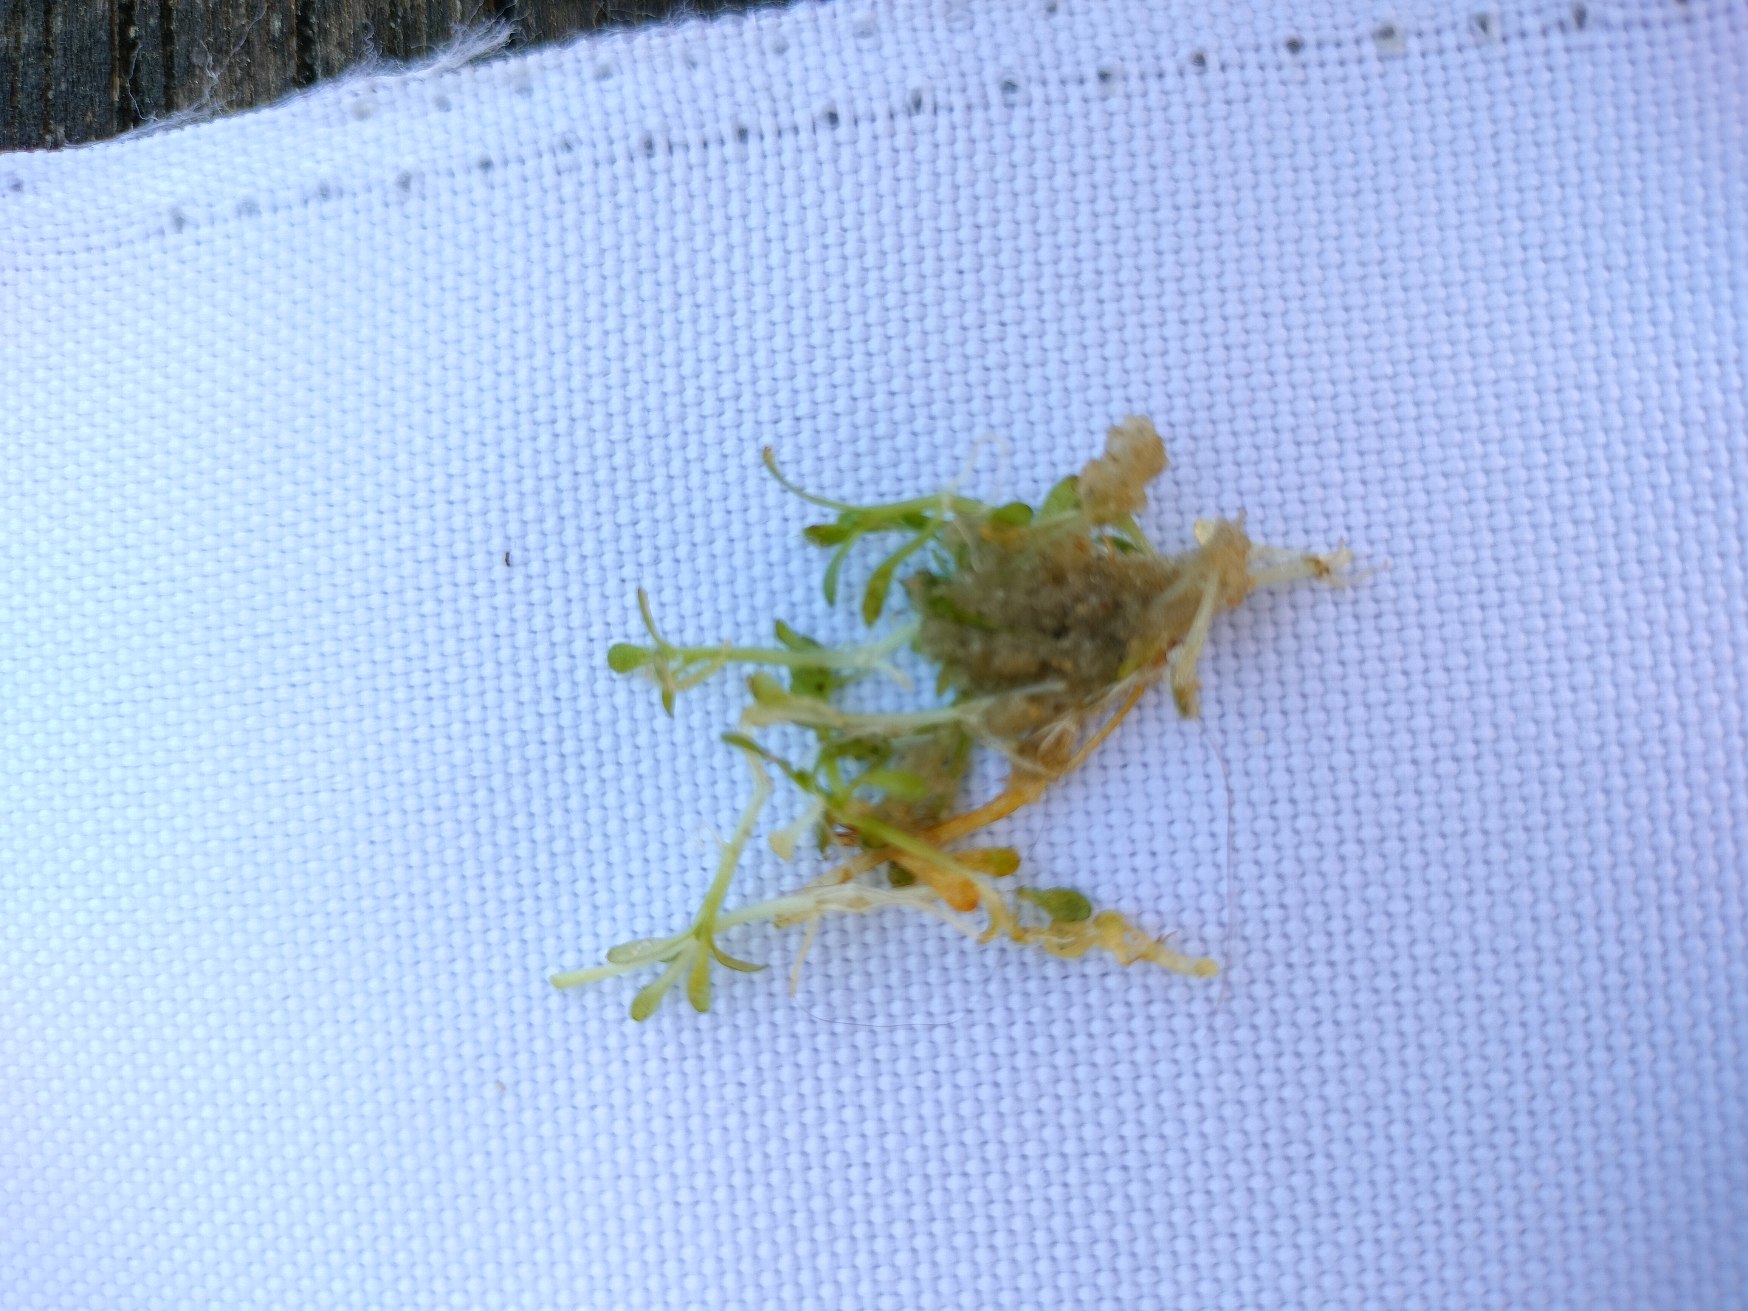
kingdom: Plantae
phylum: Tracheophyta
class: Magnoliopsida
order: Malpighiales
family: Elatinaceae
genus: Elatine
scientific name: Elatine hexandra
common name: Sekshannet bækarve
